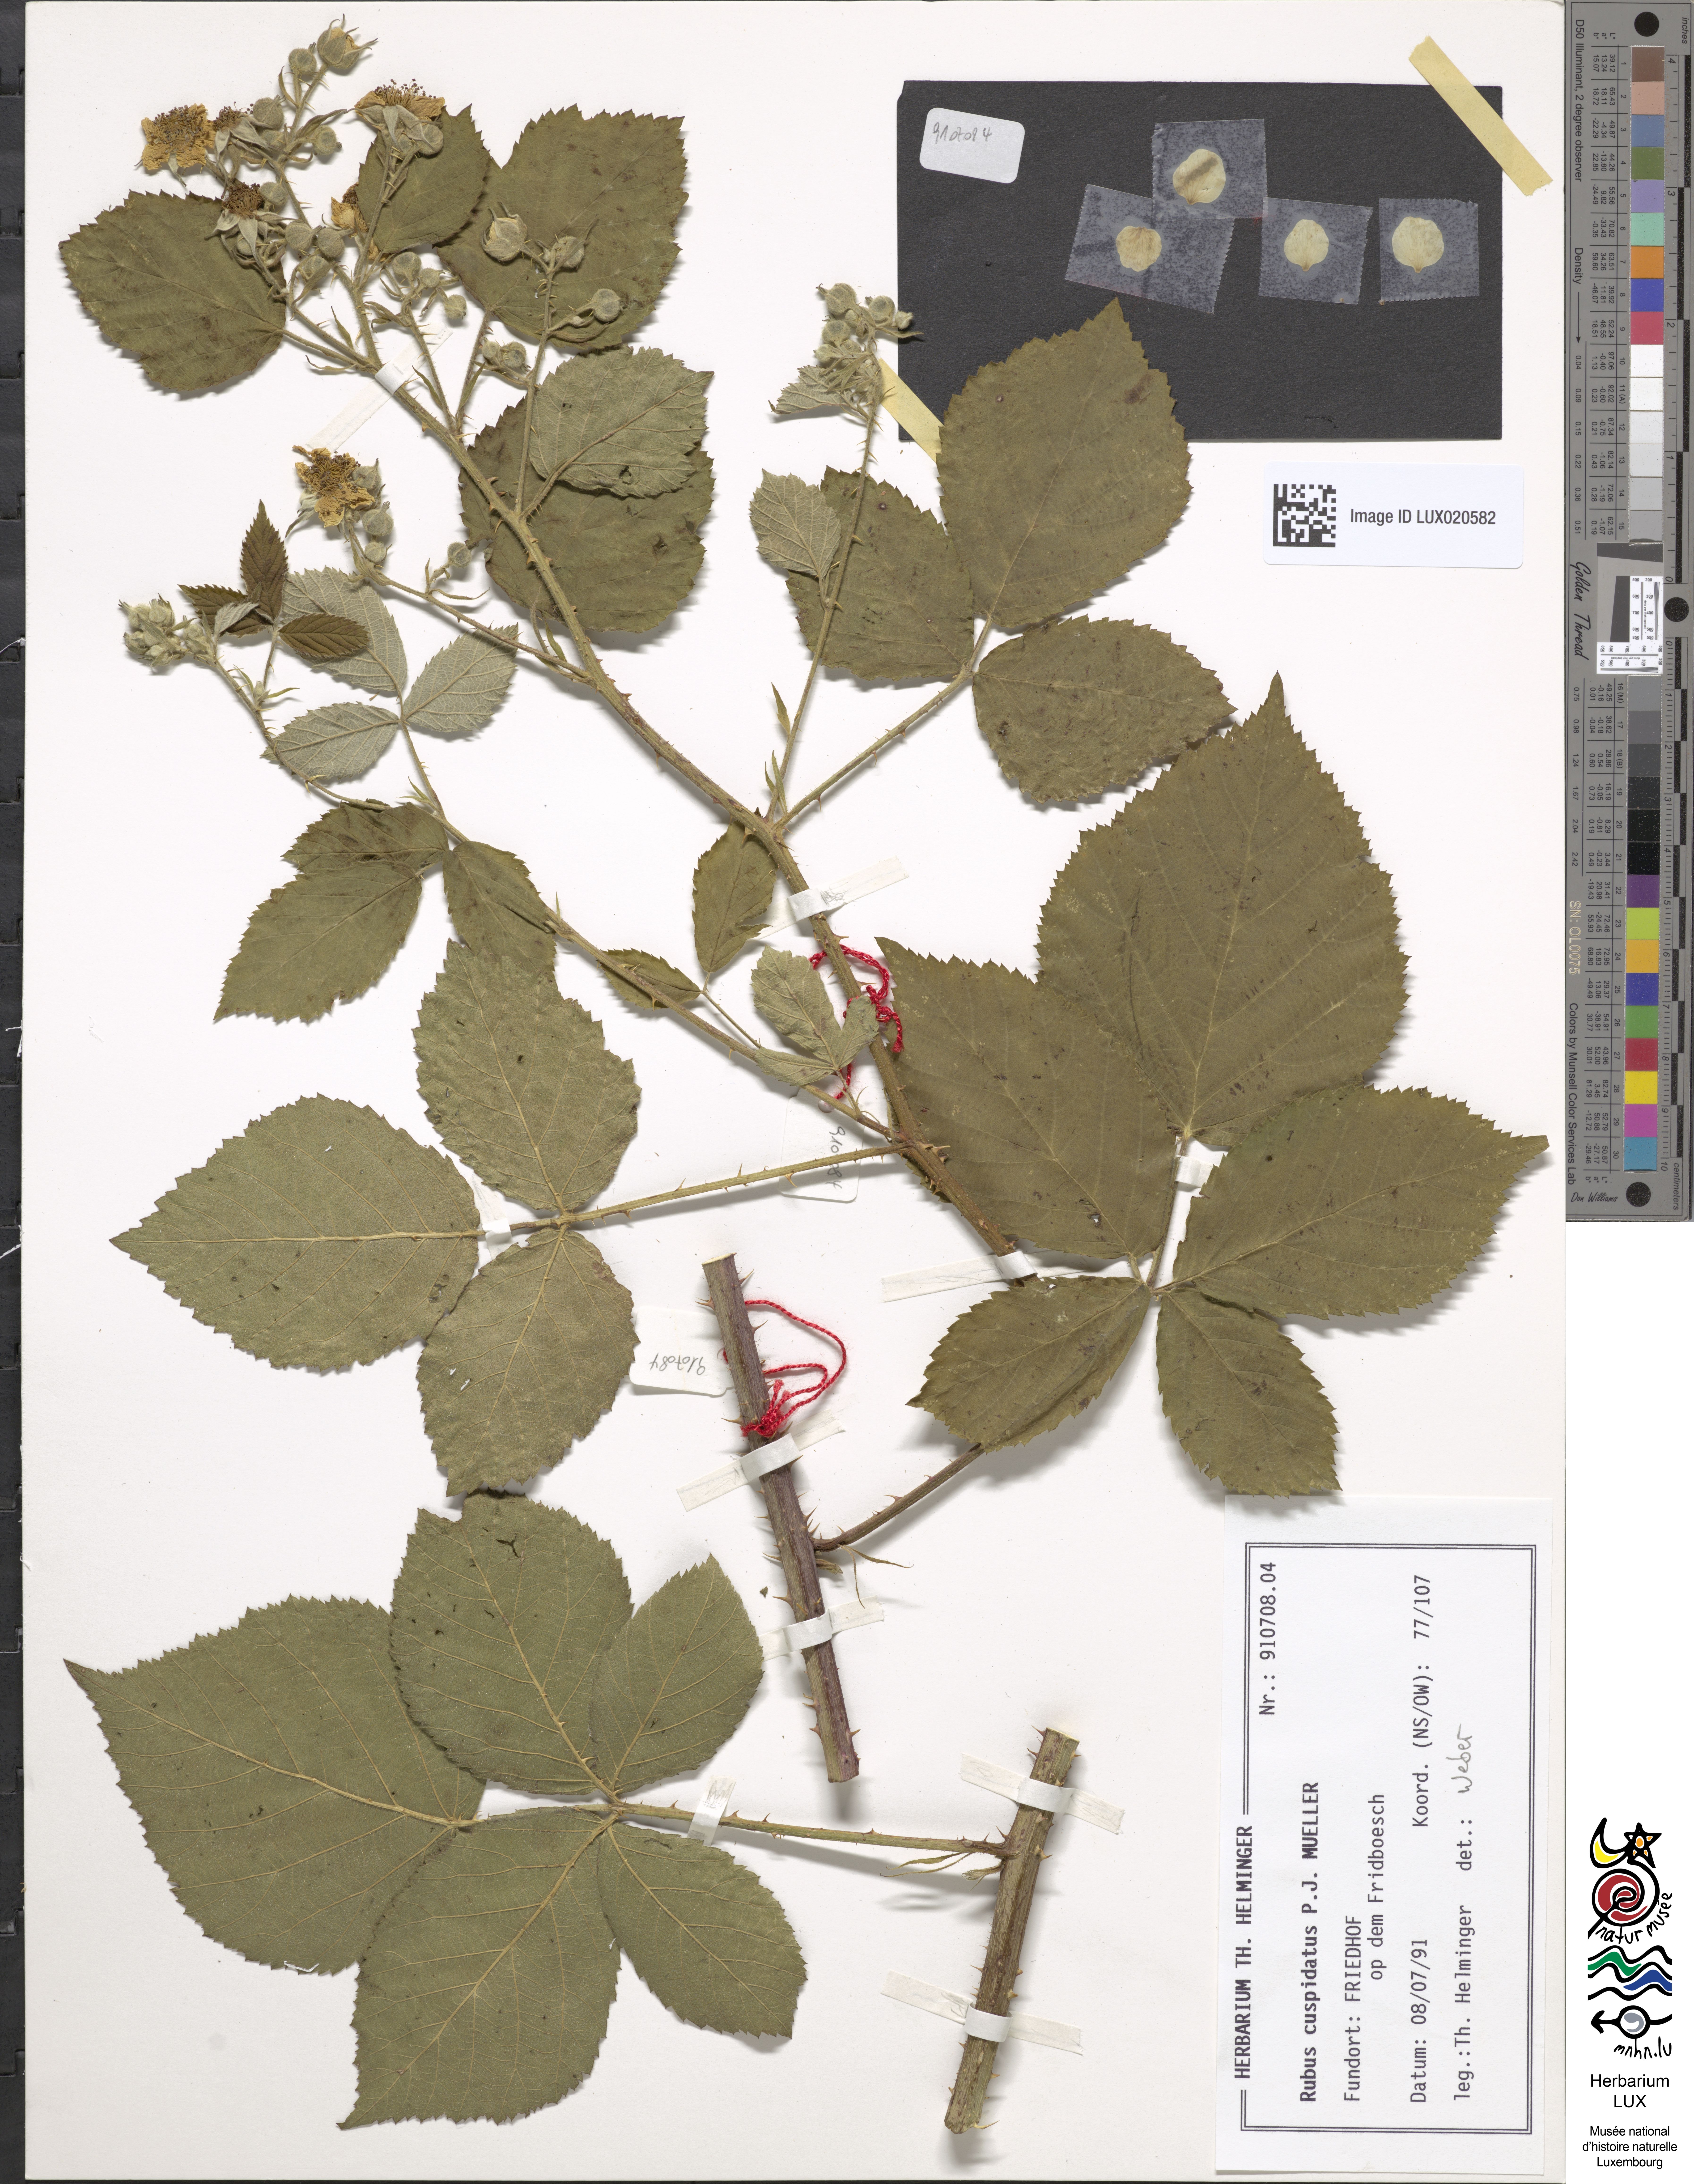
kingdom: Plantae
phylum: Tracheophyta
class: Magnoliopsida
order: Rosales
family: Rosaceae
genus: Rubus
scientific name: Rubus cuspidatus
